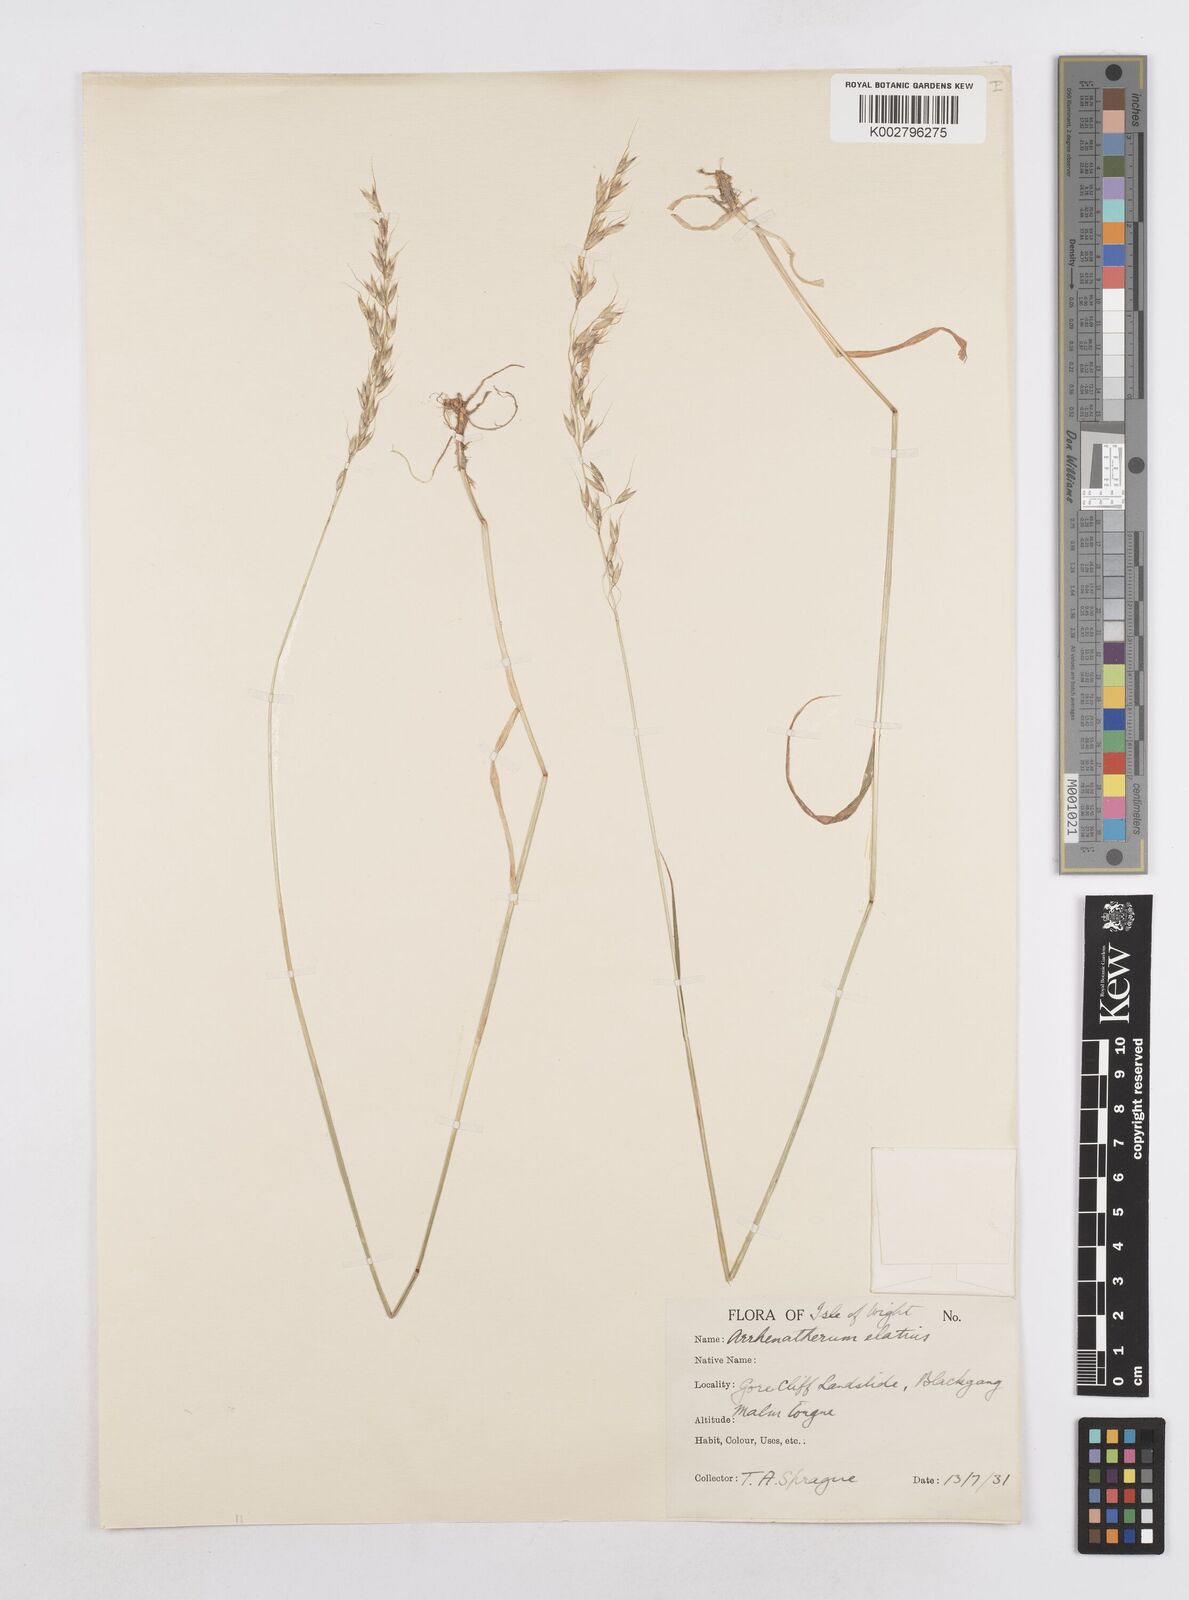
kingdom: Plantae
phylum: Tracheophyta
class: Liliopsida
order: Poales
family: Poaceae
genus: Arrhenatherum
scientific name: Arrhenatherum elatius
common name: Tall oatgrass
